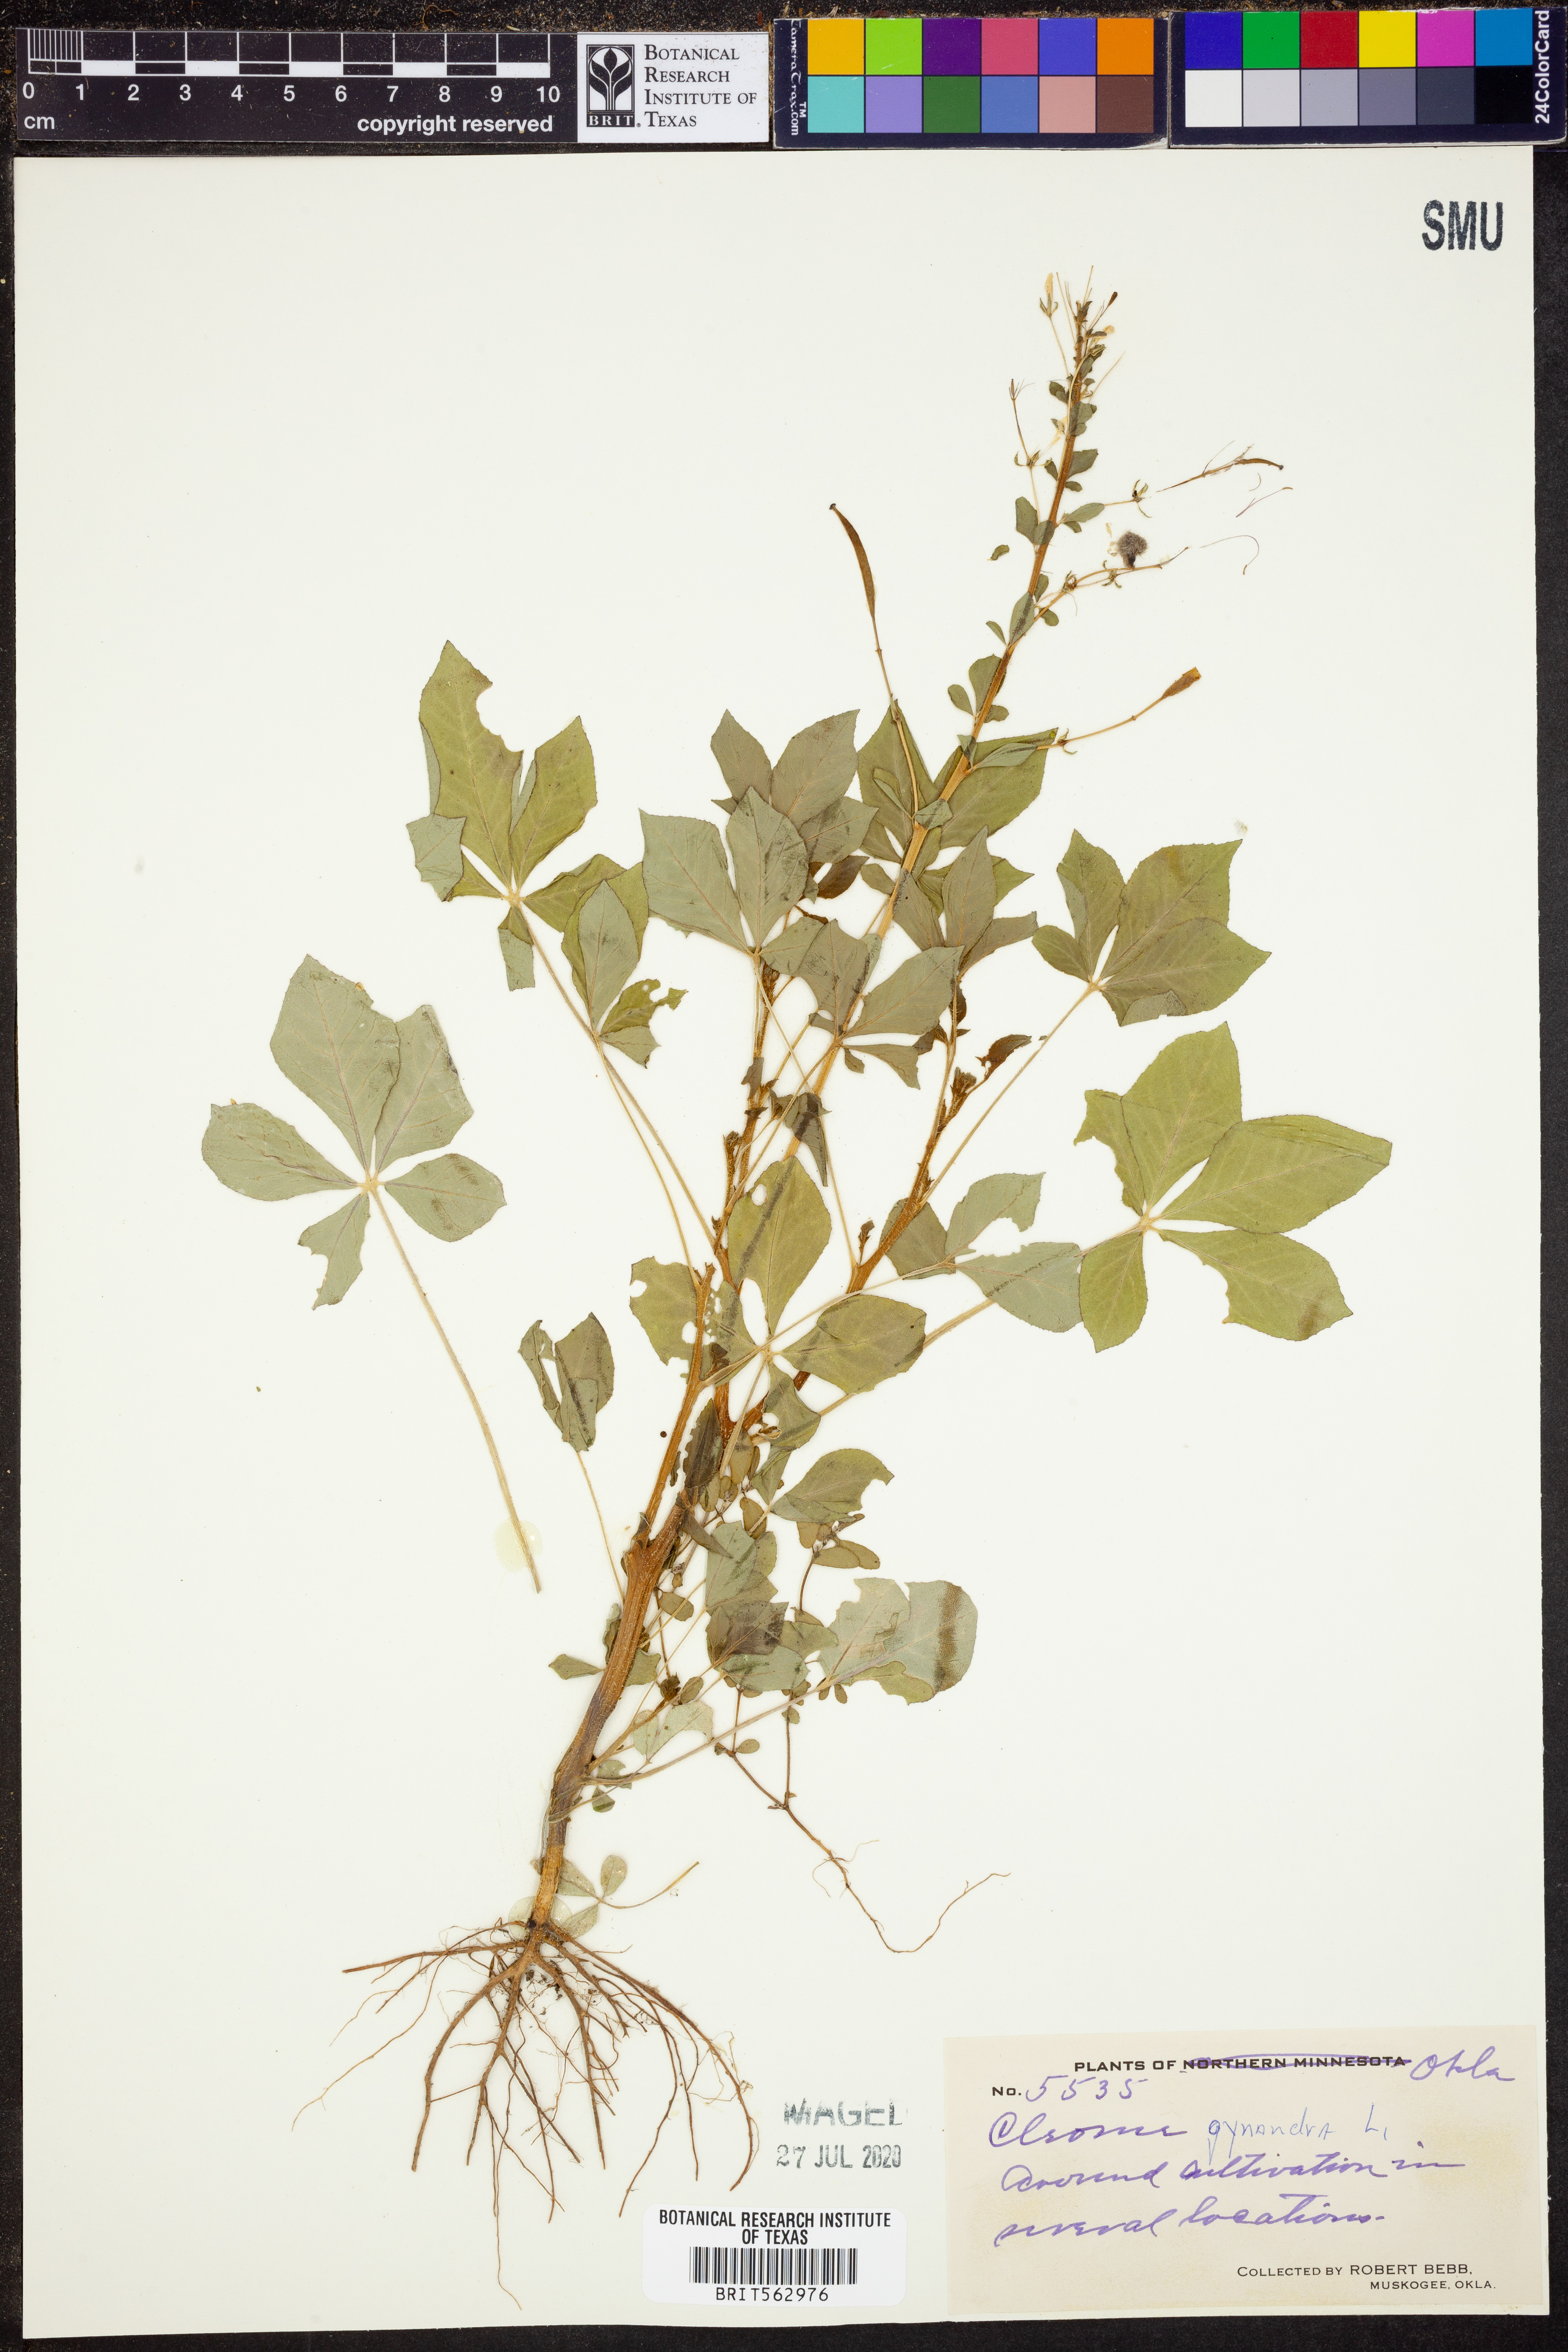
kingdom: Plantae
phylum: Tracheophyta
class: Magnoliopsida
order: Brassicales
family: Cleomaceae
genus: Gynandropsis
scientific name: Gynandropsis gynandra
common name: Spiderwisp
